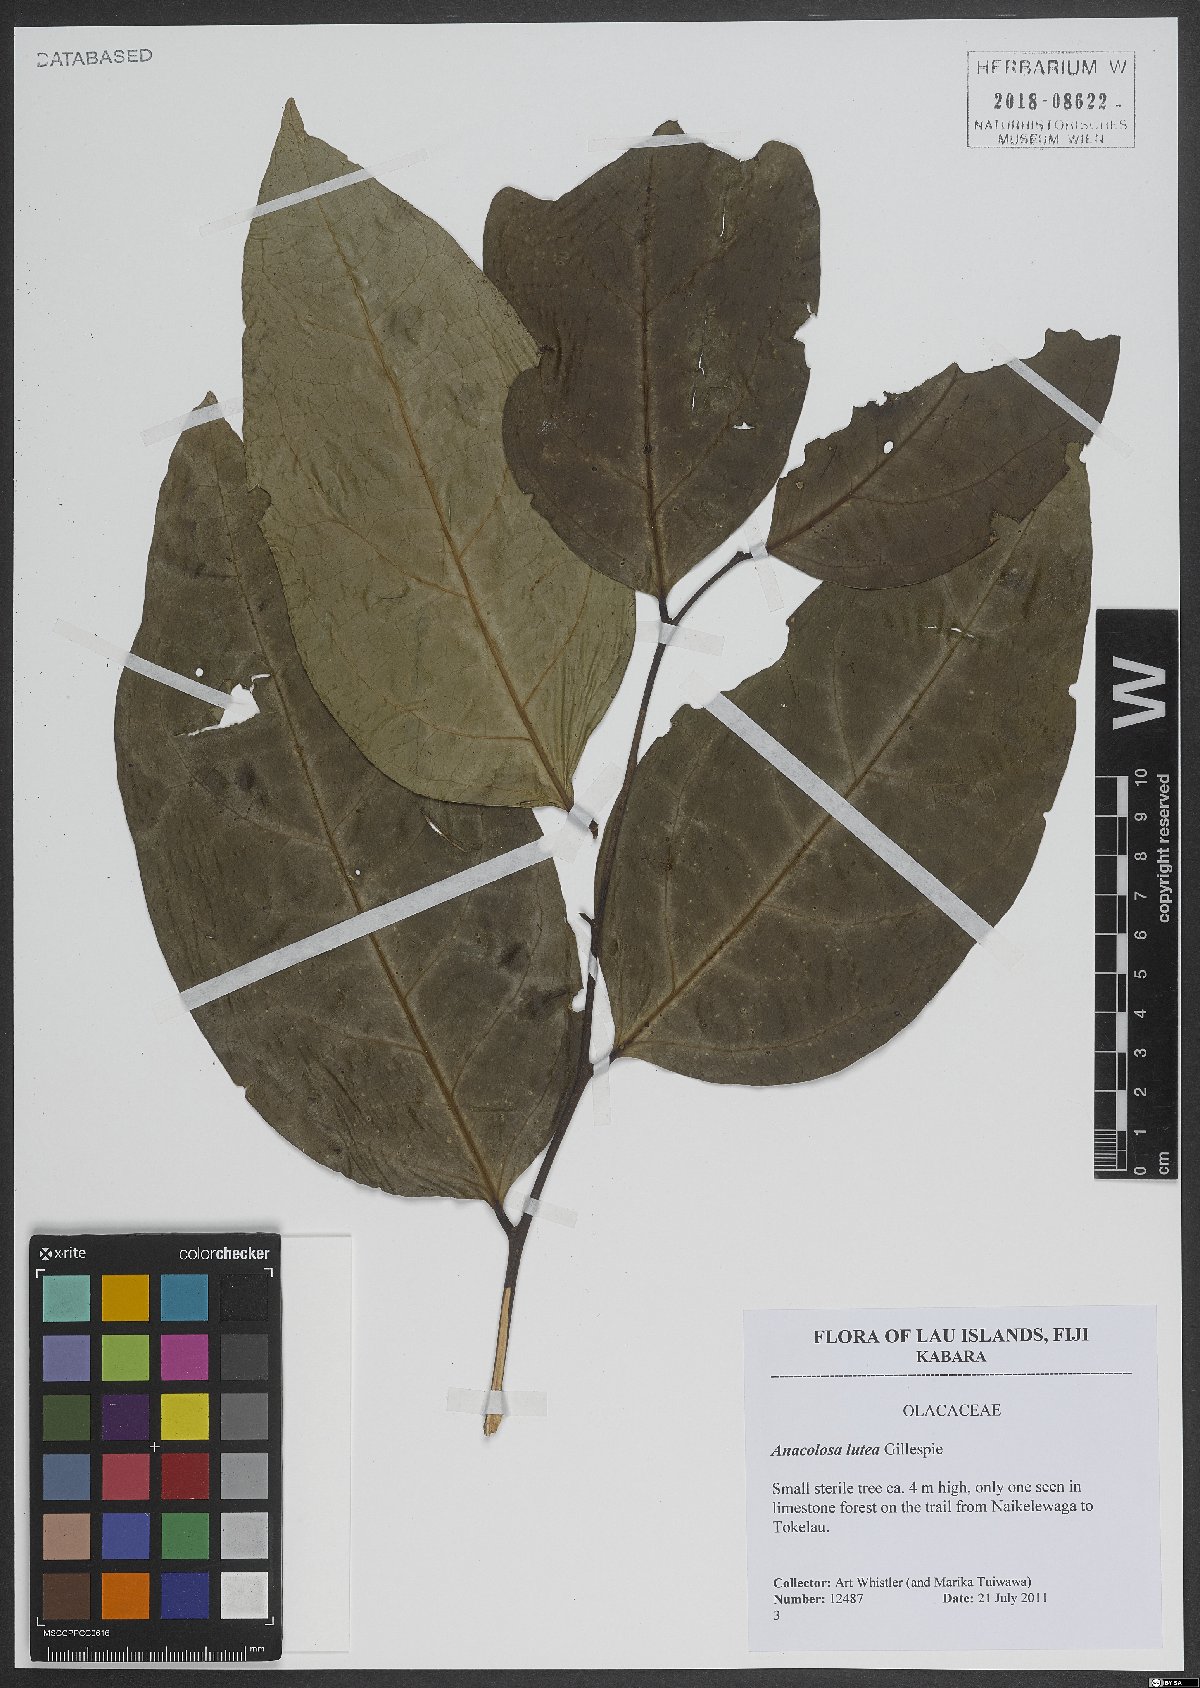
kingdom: Plantae
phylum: Tracheophyta
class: Magnoliopsida
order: Santalales
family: Aptandraceae
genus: Anacolosa
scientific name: Anacolosa lutea
